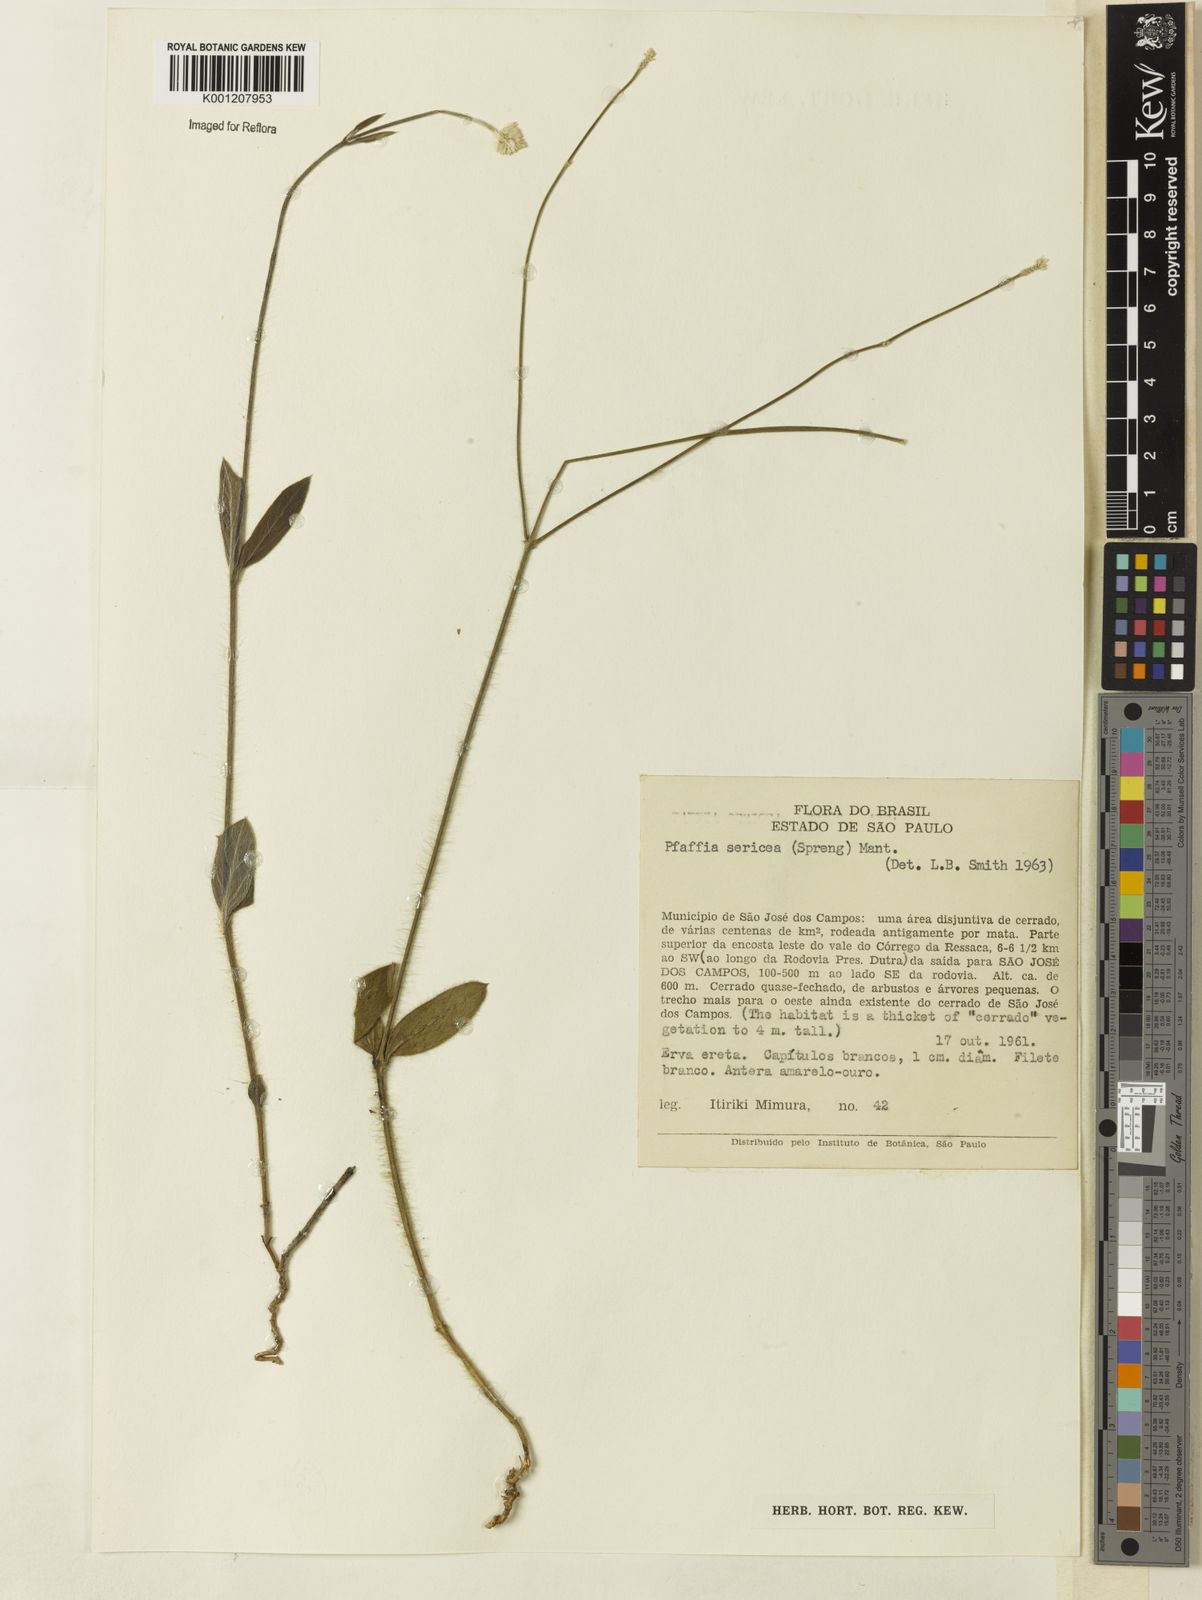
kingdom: Plantae
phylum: Tracheophyta
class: Magnoliopsida
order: Caryophyllales
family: Amaranthaceae
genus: Pfaffia
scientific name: Pfaffia
